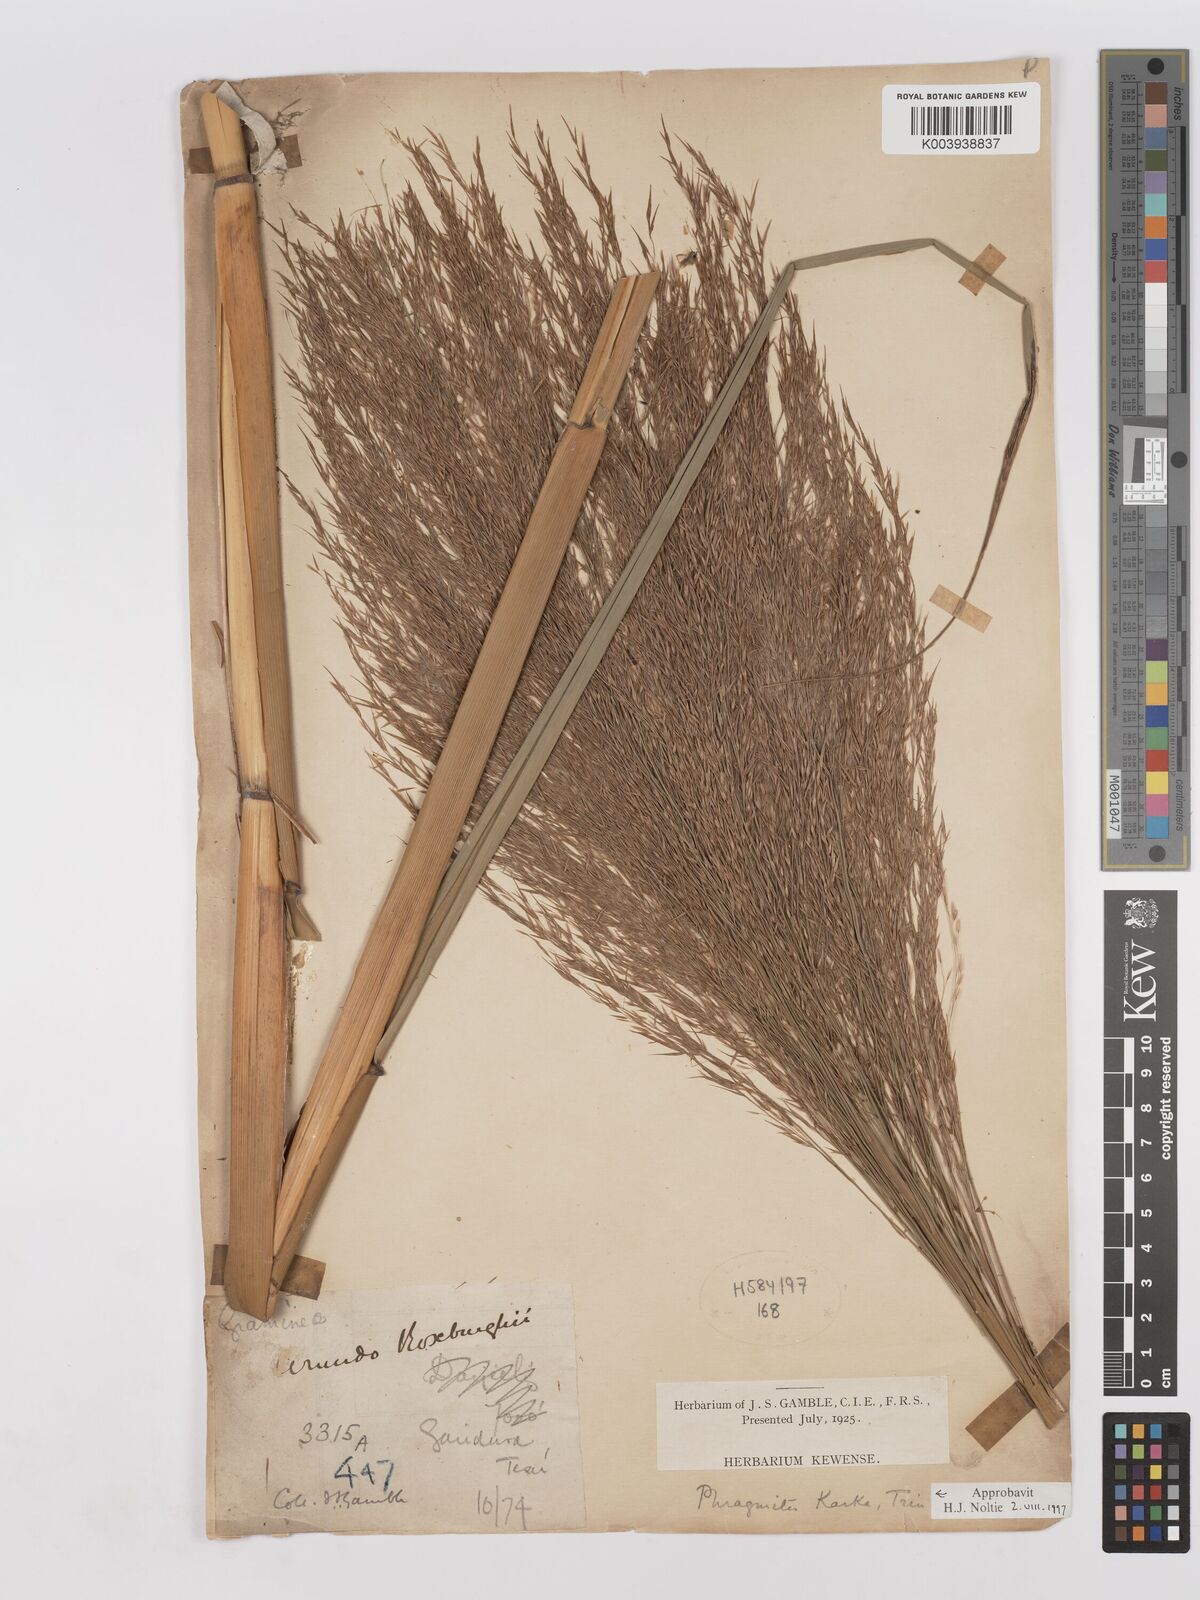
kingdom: Plantae
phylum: Tracheophyta
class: Liliopsida
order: Poales
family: Poaceae
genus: Phragmites
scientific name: Phragmites karka
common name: Tropical reed
